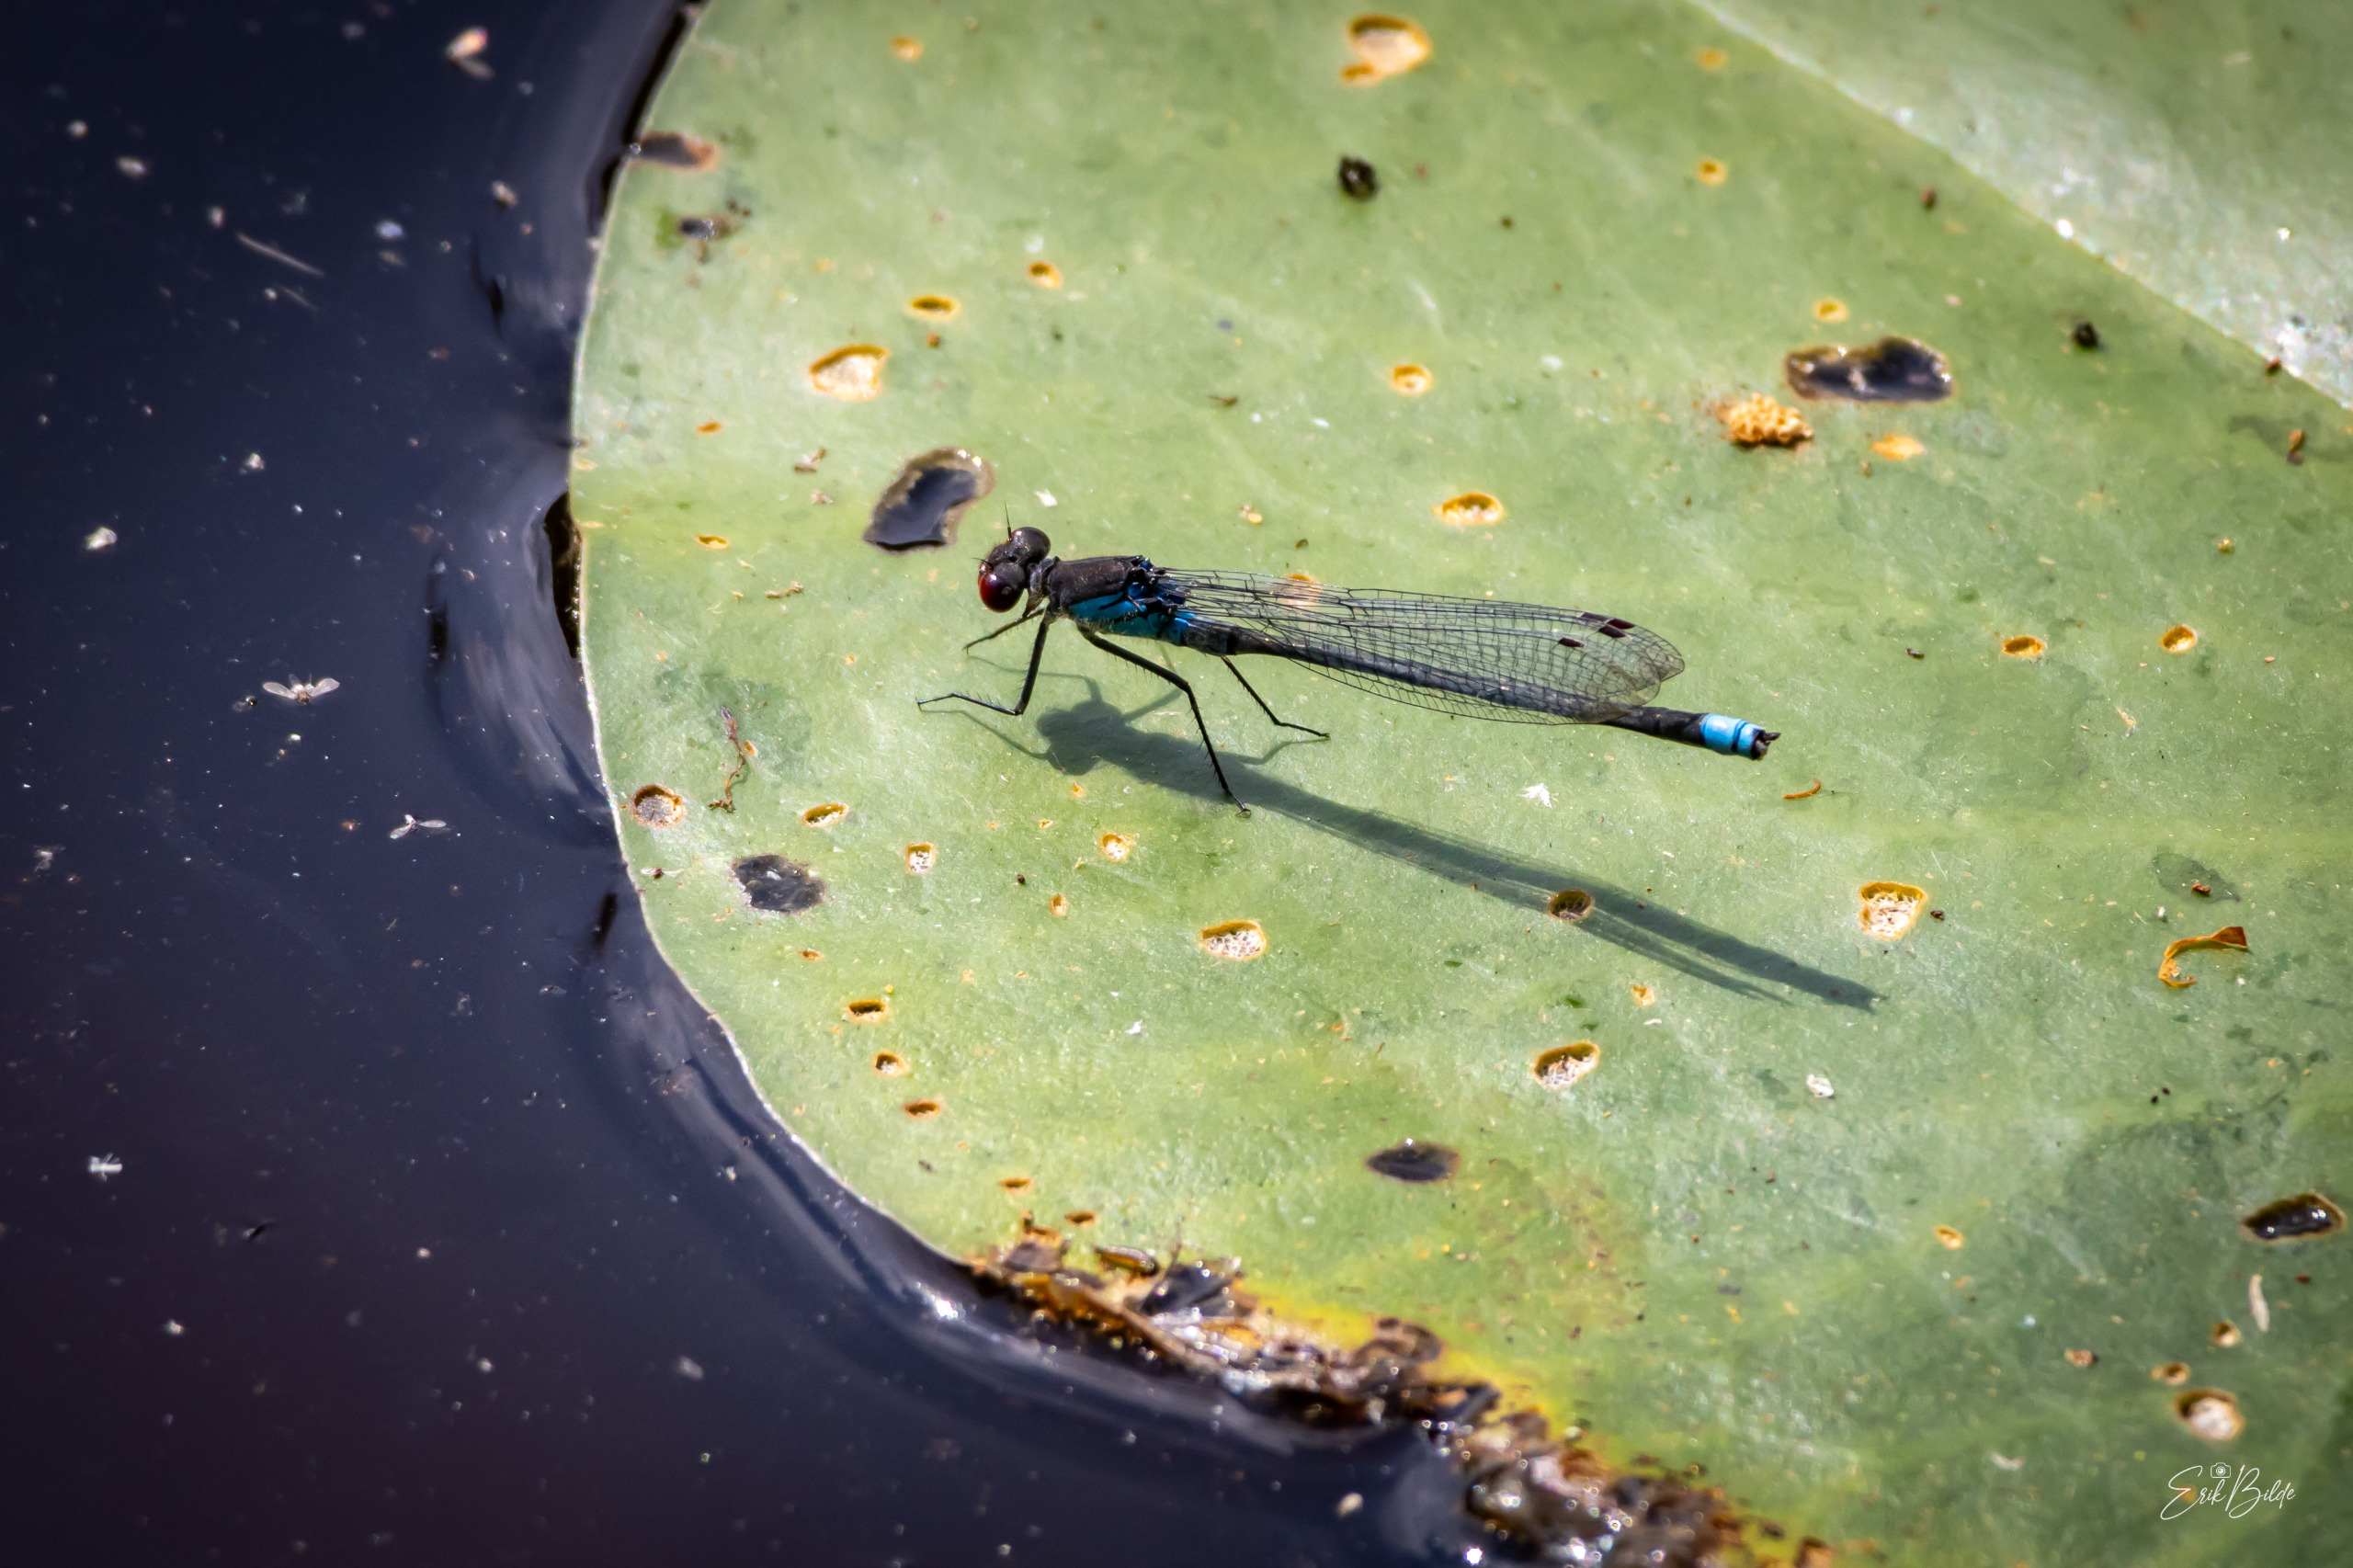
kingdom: Animalia
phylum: Arthropoda
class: Insecta
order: Odonata
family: Coenagrionidae
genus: Erythromma
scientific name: Erythromma najas
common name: Rødøjet vandnymfe
